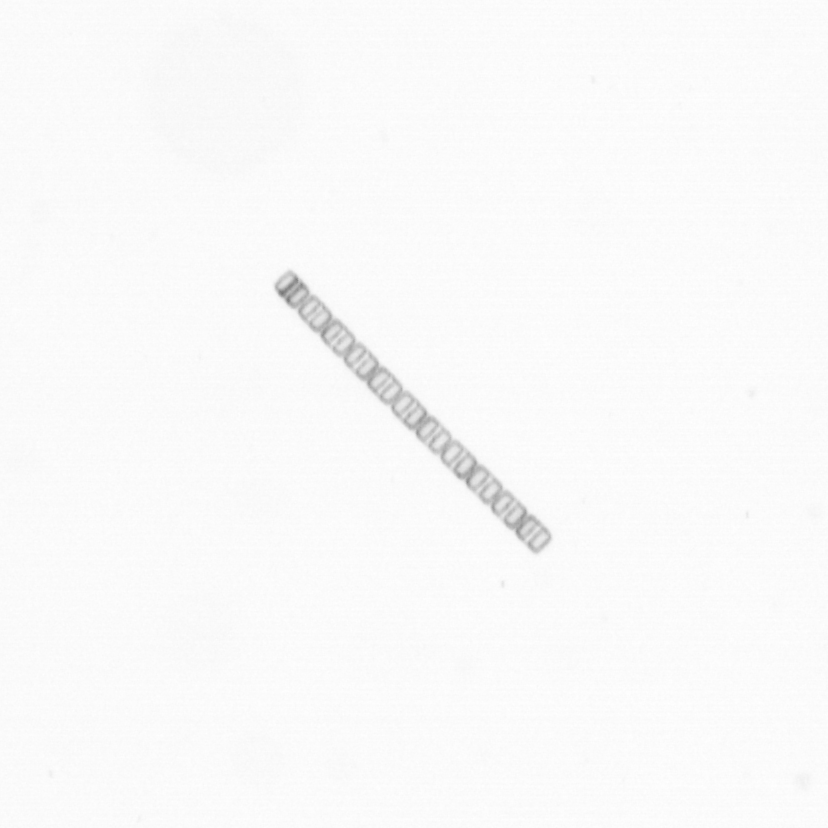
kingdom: Chromista
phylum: Ochrophyta
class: Bacillariophyceae
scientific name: Bacillariophyceae
